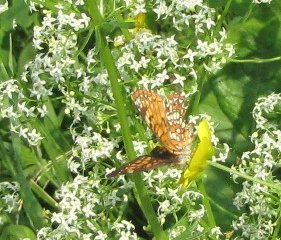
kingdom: Animalia
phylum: Arthropoda
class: Insecta
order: Lepidoptera
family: Nymphalidae
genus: Chlosyne
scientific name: Chlosyne harrisii
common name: Harris's Checkerspot
